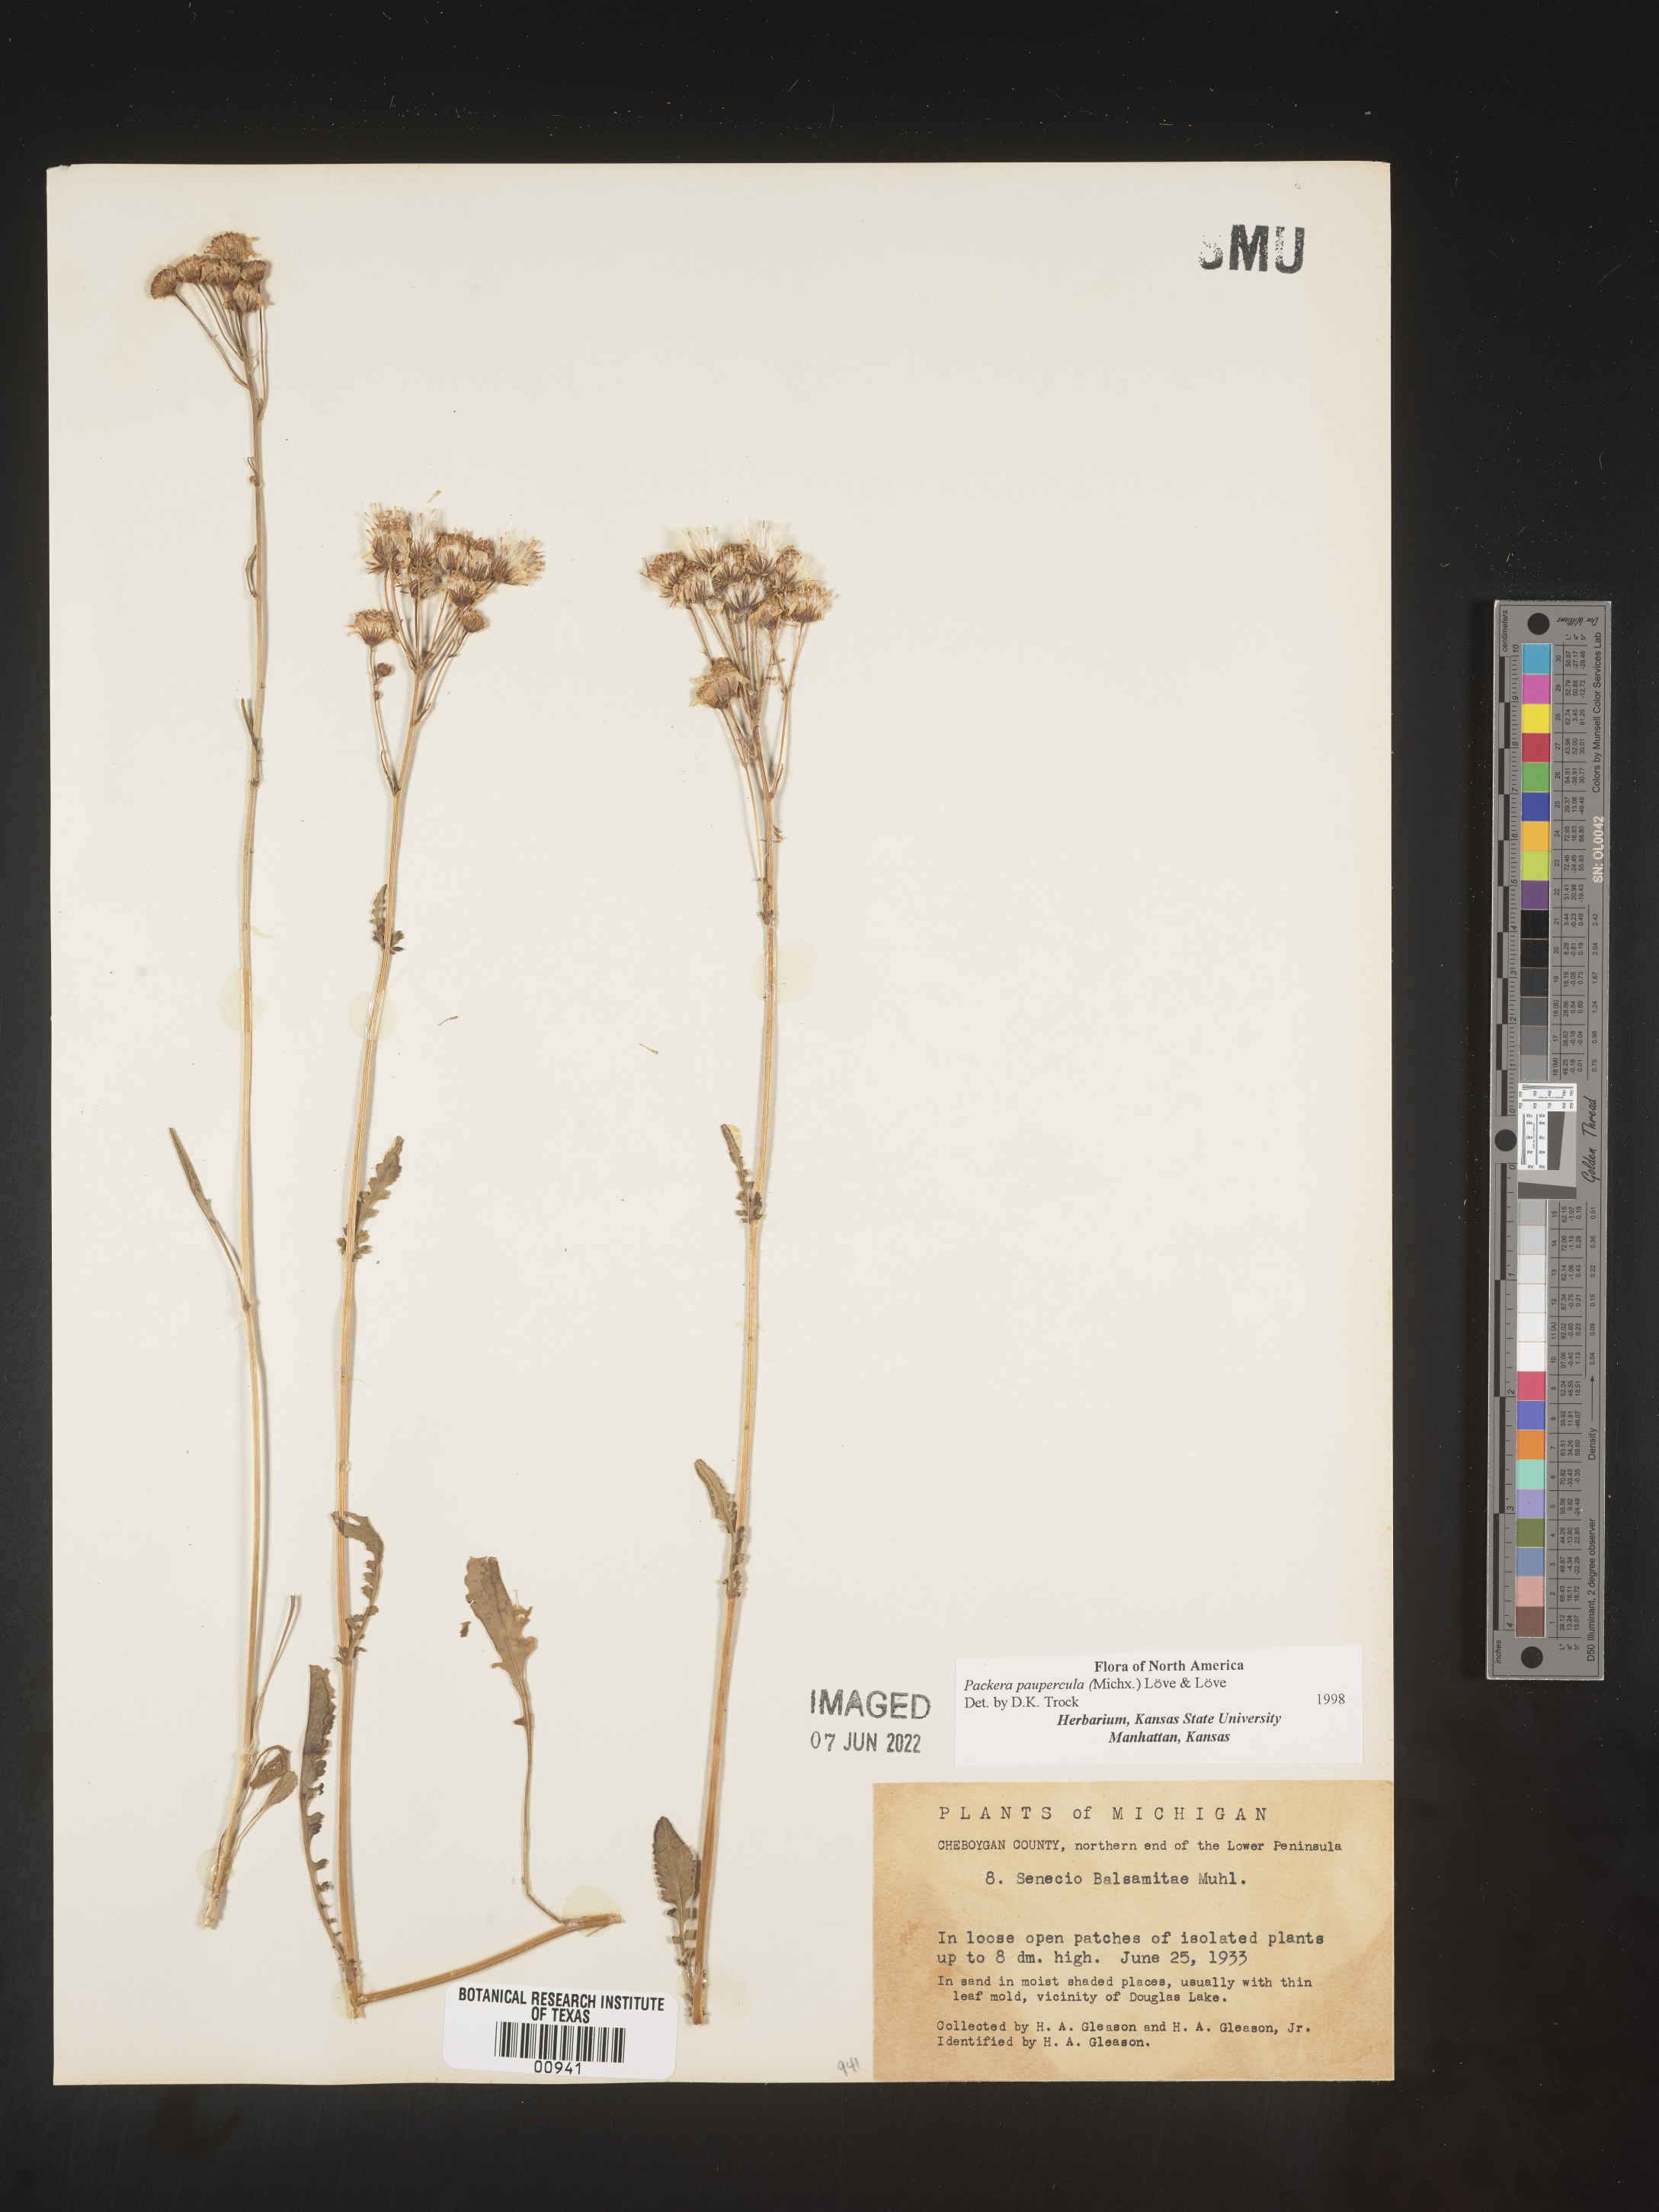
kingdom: Plantae
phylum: Tracheophyta
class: Magnoliopsida
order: Asterales
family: Asteraceae
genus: Packera
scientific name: Packera paupercula
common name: Balsam groundsel
